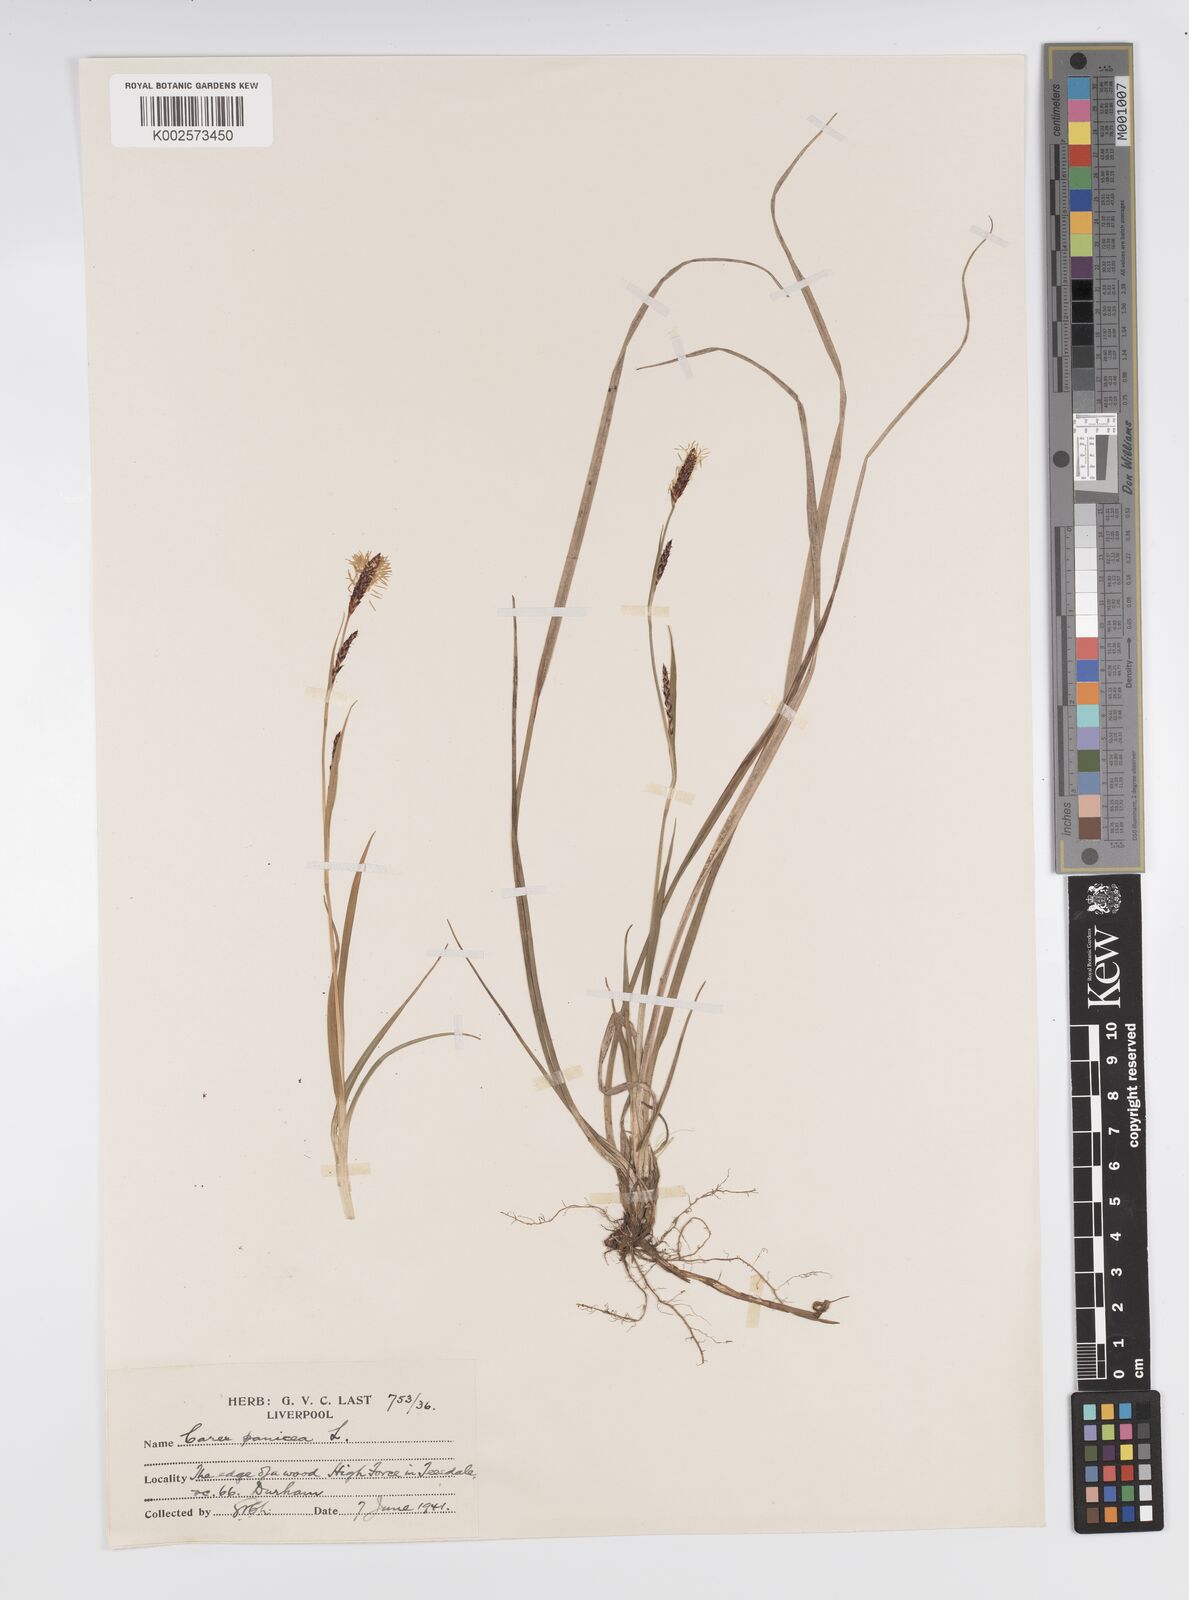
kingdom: Plantae
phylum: Tracheophyta
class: Liliopsida
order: Poales
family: Cyperaceae
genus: Carex
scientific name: Carex panicea
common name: Carnation sedge
